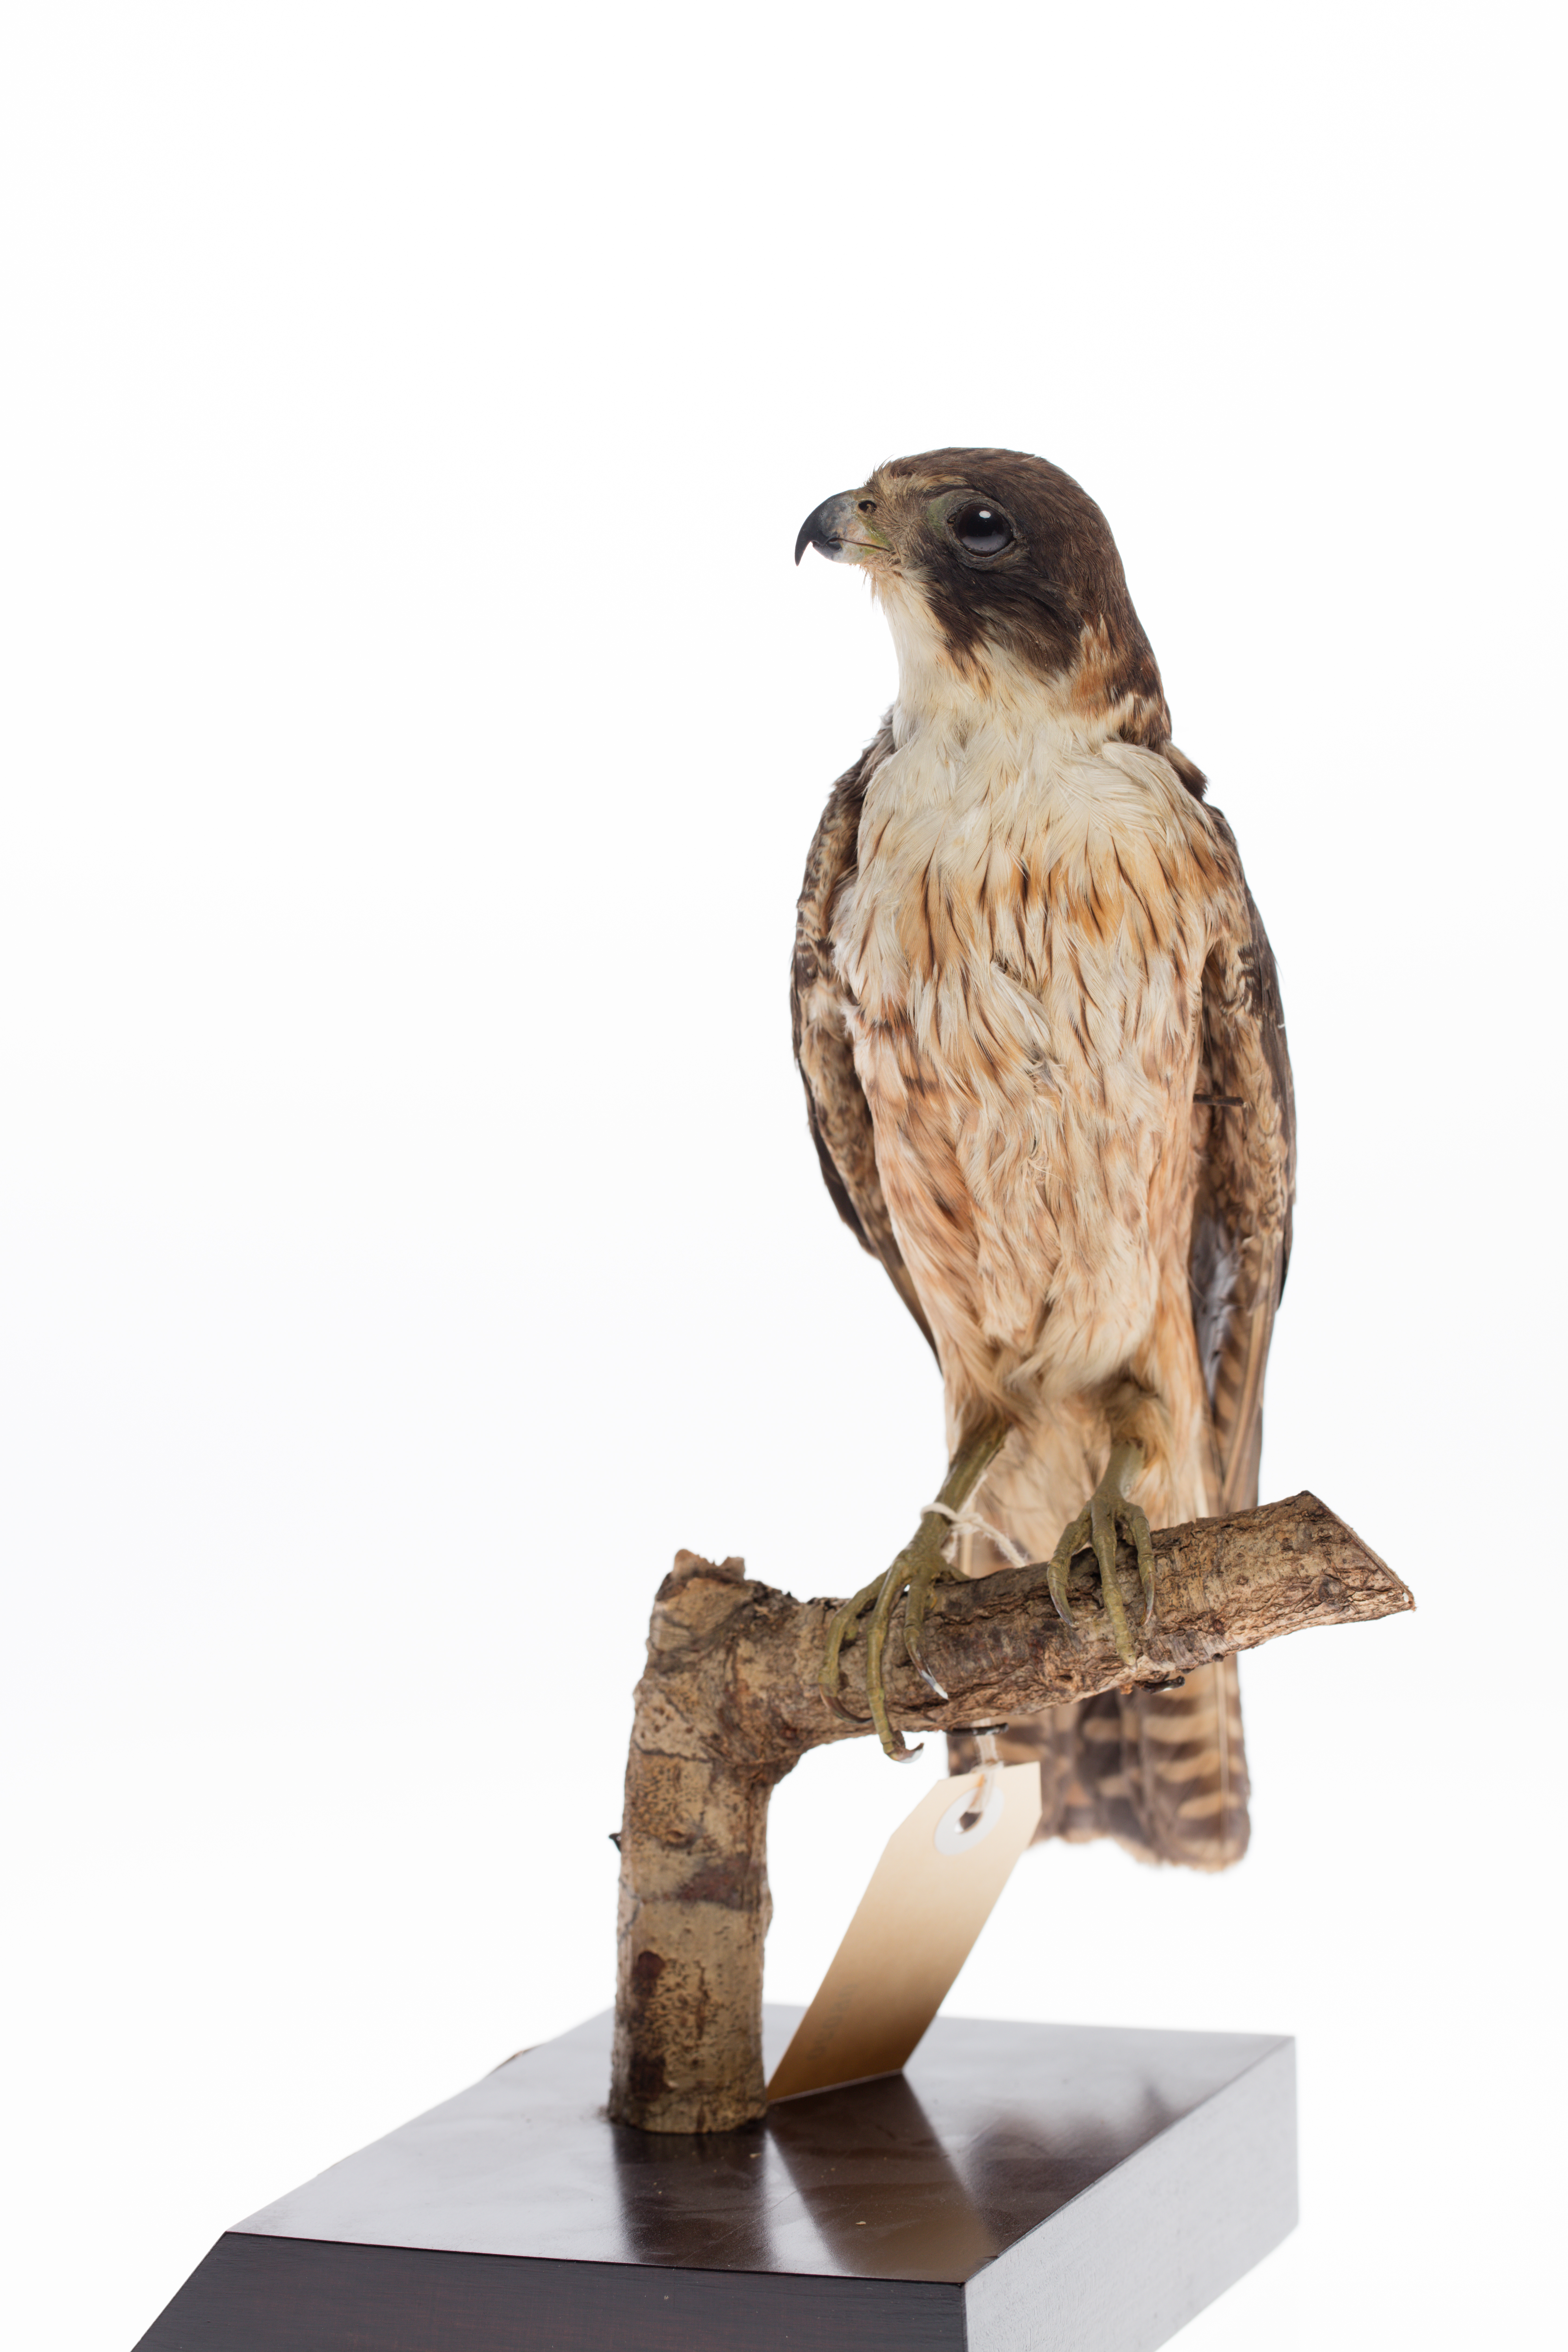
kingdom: Animalia
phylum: Chordata
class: Aves
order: Falconiformes
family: Falconidae
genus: Falco
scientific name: Falco longipennis
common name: Australian hobby
